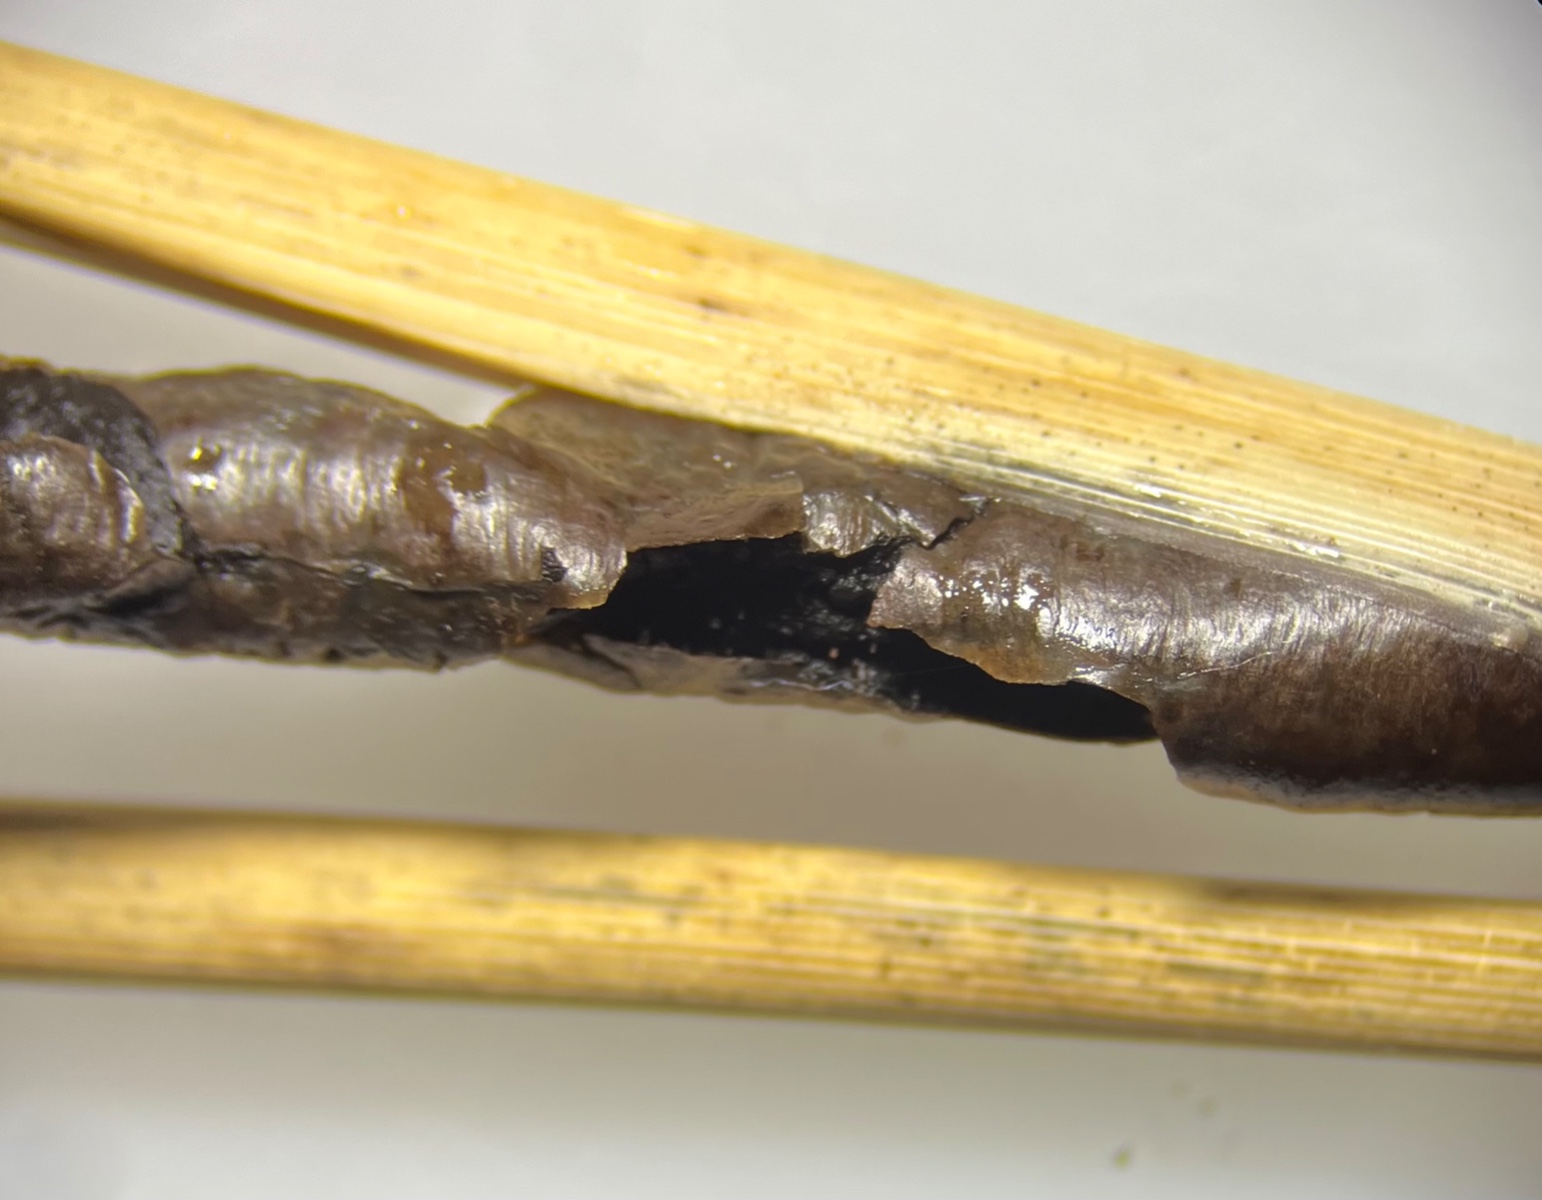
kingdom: Fungi
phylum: Basidiomycota
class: Ustilaginomycetes
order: Ustilaginales
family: Ustilaginaceae
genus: Ustilago
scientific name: Ustilago grandis
